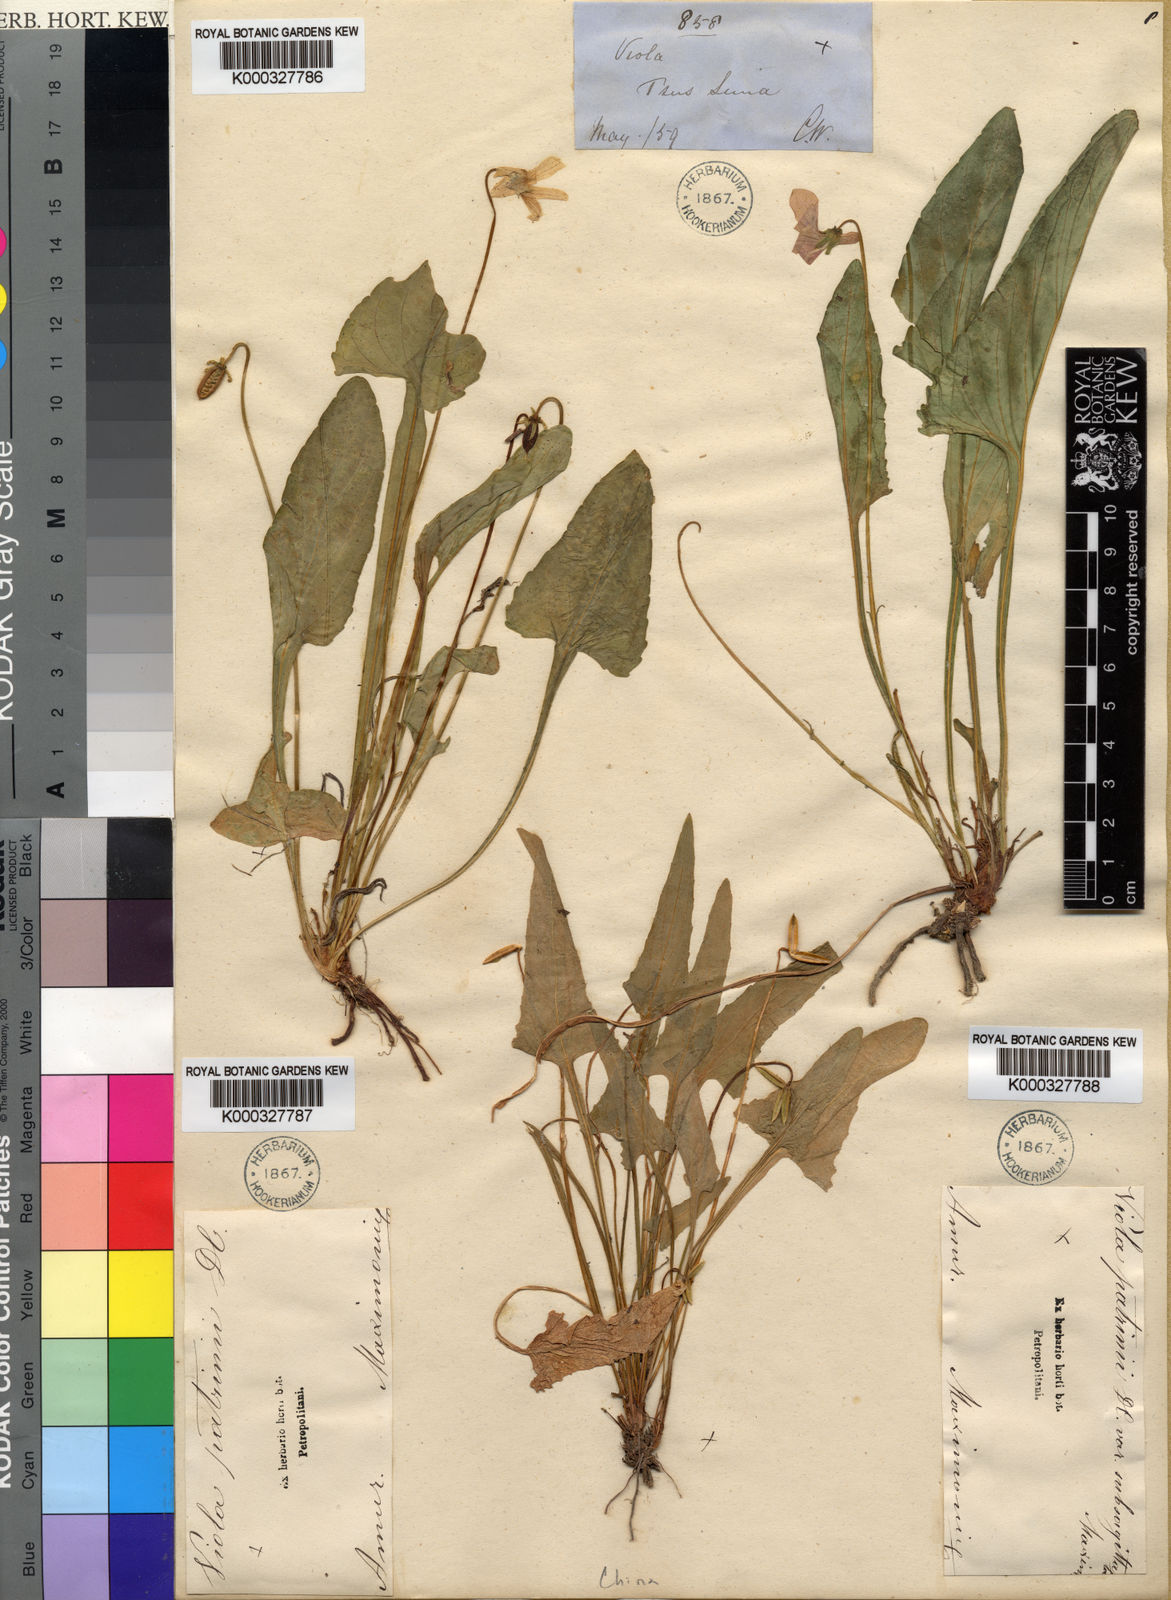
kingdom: Plantae
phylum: Tracheophyta
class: Magnoliopsida
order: Malpighiales
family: Violaceae
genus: Viola
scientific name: Viola patrinii
